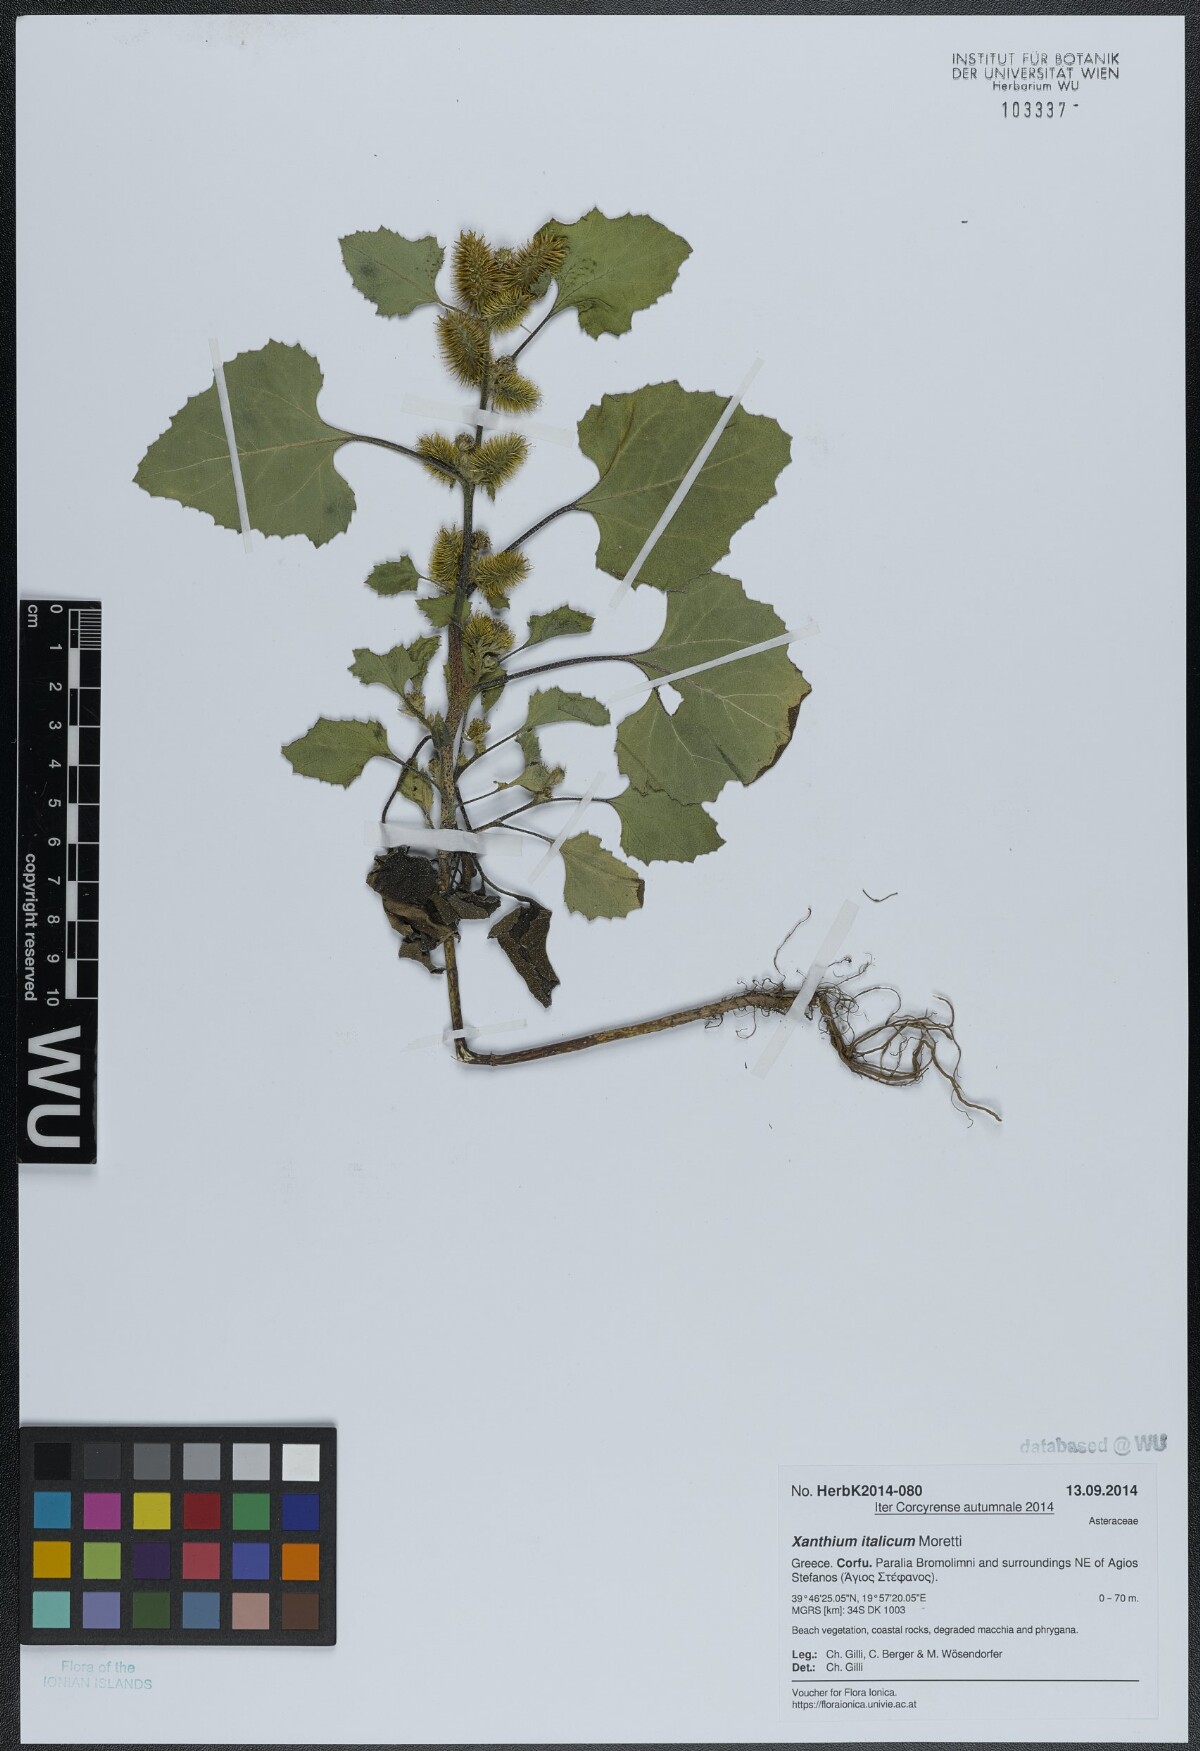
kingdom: Plantae
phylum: Tracheophyta
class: Magnoliopsida
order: Asterales
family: Asteraceae
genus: Xanthium
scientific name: Xanthium orientale
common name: Californian burr
